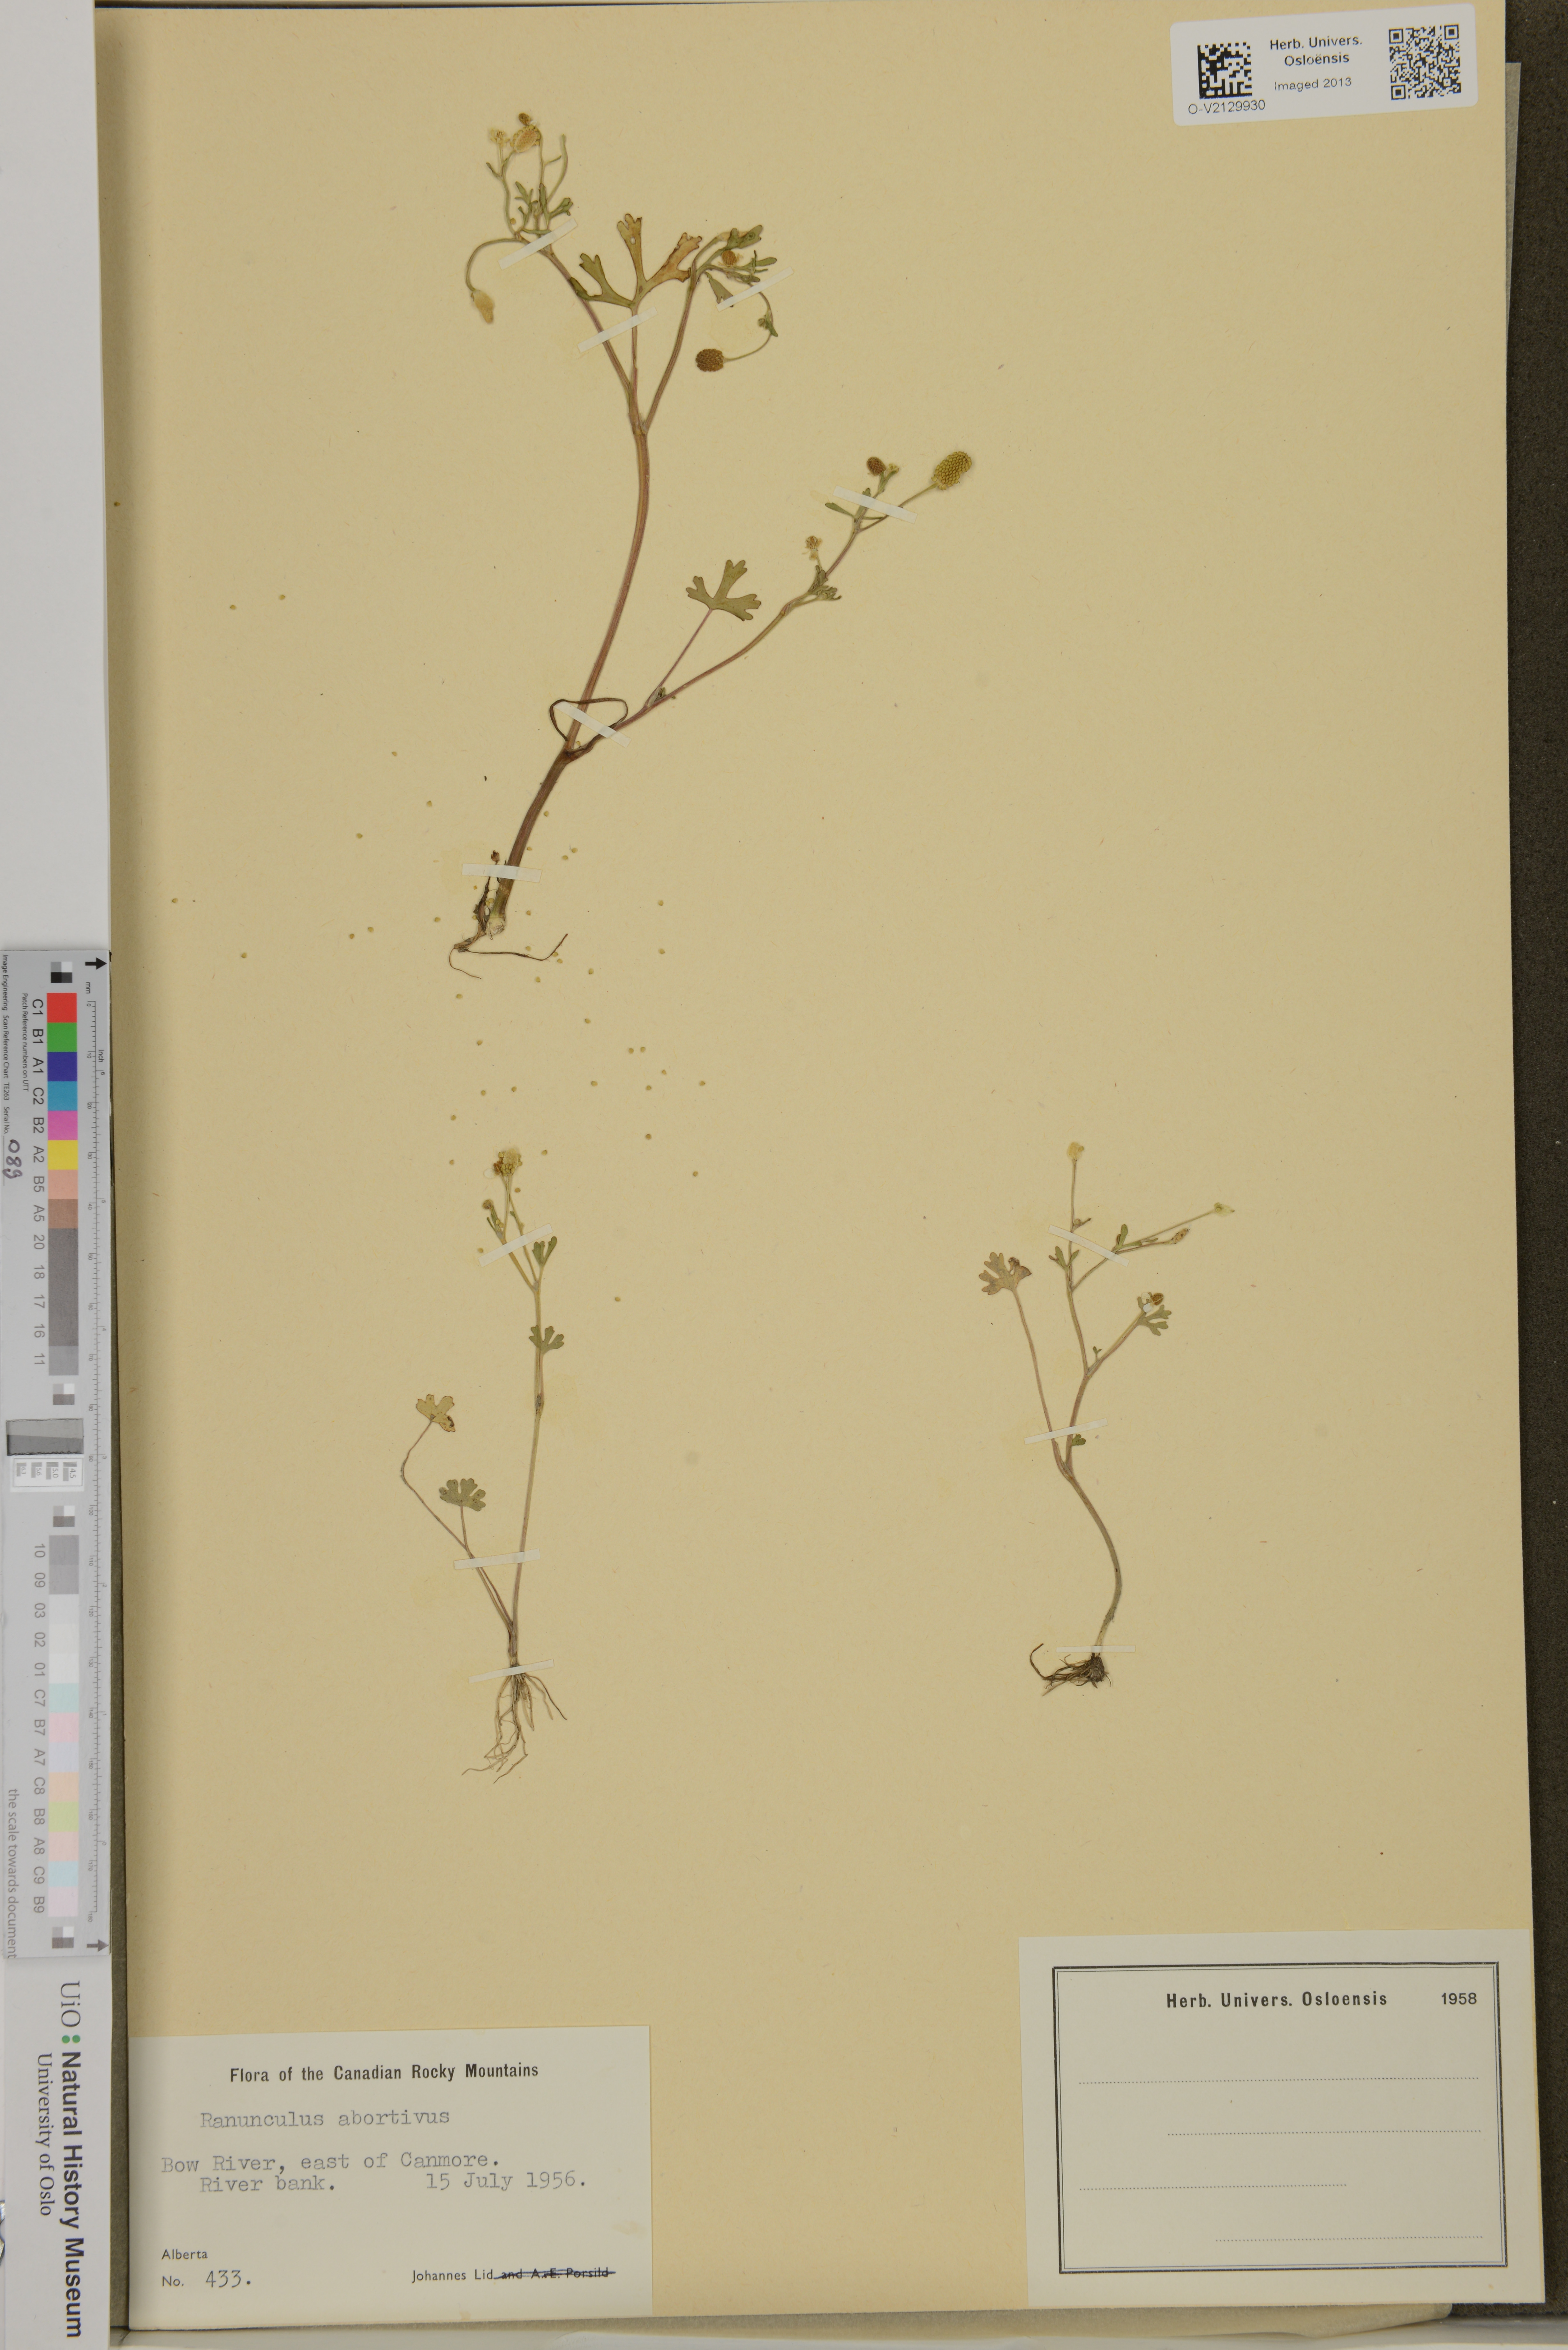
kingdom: Plantae
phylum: Tracheophyta
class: Magnoliopsida
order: Ranunculales
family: Ranunculaceae
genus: Ranunculus
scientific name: Ranunculus abortivus
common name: Early wood buttercup
